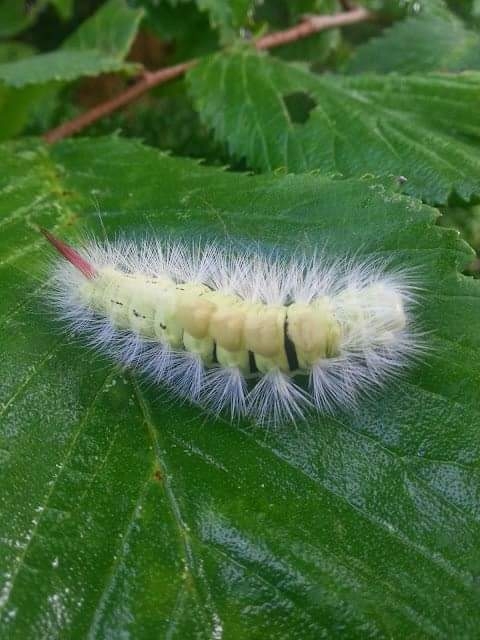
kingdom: Animalia
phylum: Arthropoda
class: Insecta
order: Lepidoptera
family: Erebidae
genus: Calliteara
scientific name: Calliteara pudibunda
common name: Bøgenonne
